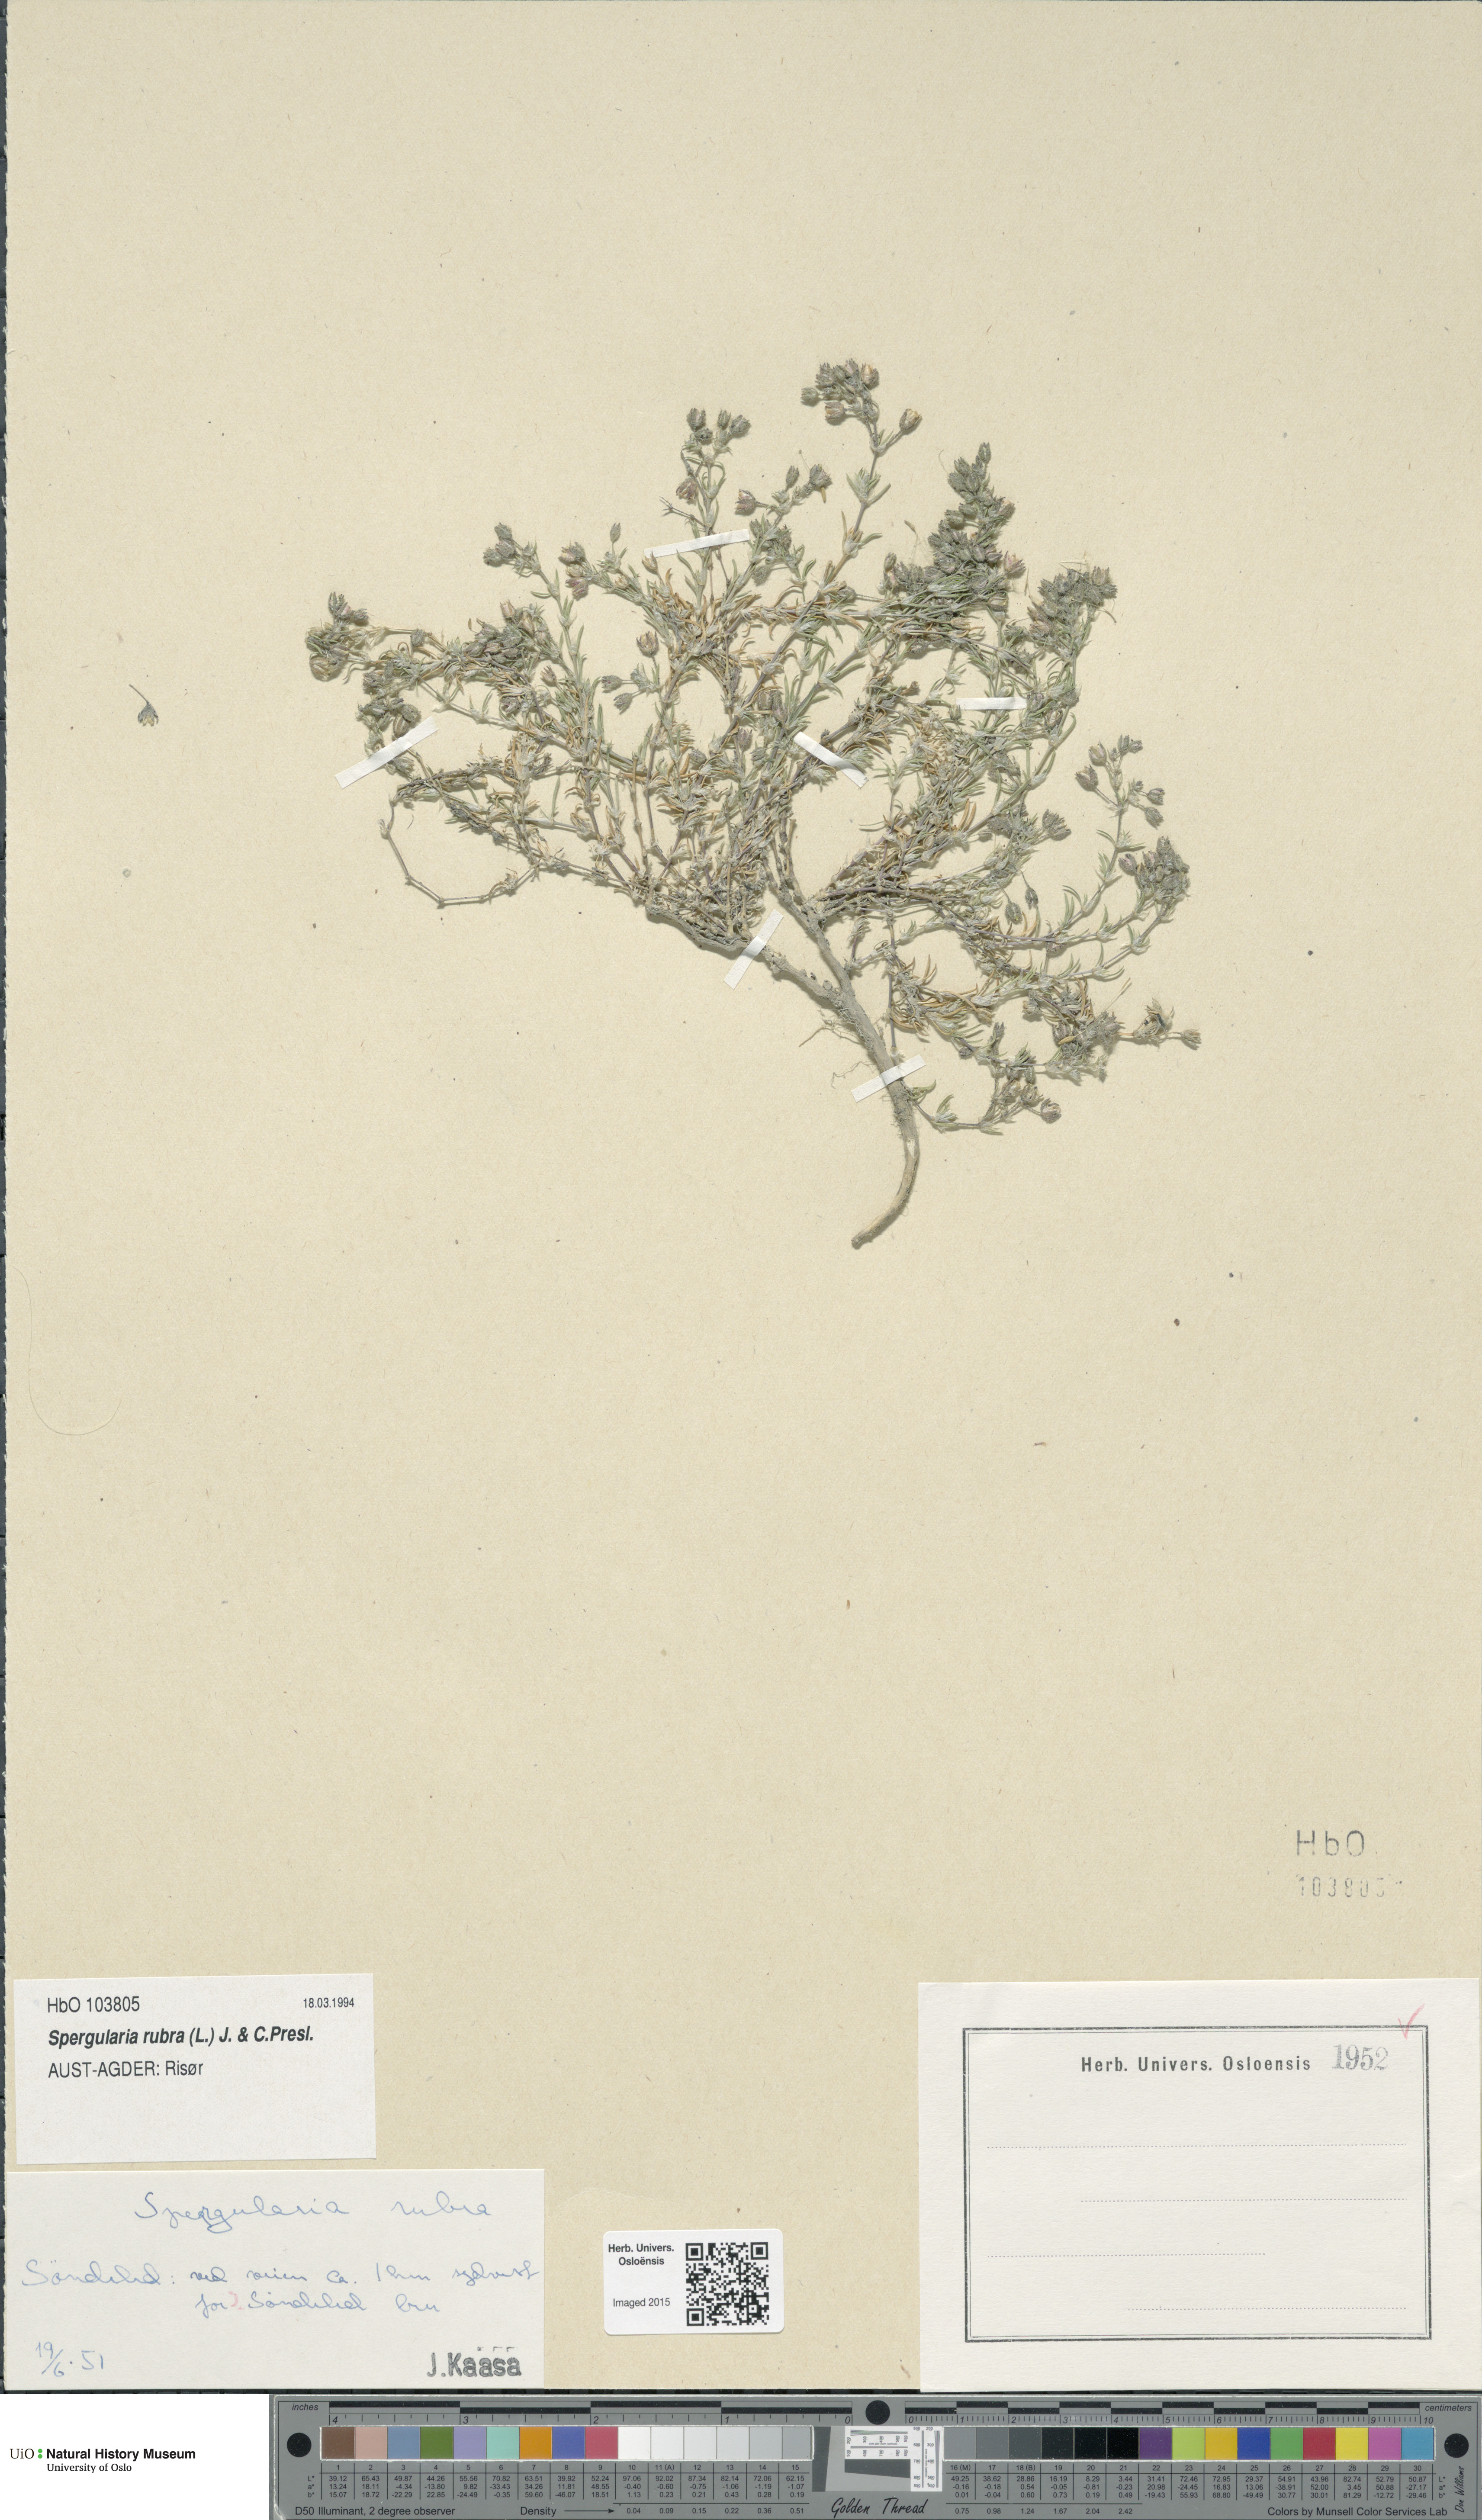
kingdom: Plantae
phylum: Tracheophyta
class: Magnoliopsida
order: Caryophyllales
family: Caryophyllaceae
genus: Spergularia
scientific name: Spergularia rubra
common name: Red sand-spurrey
